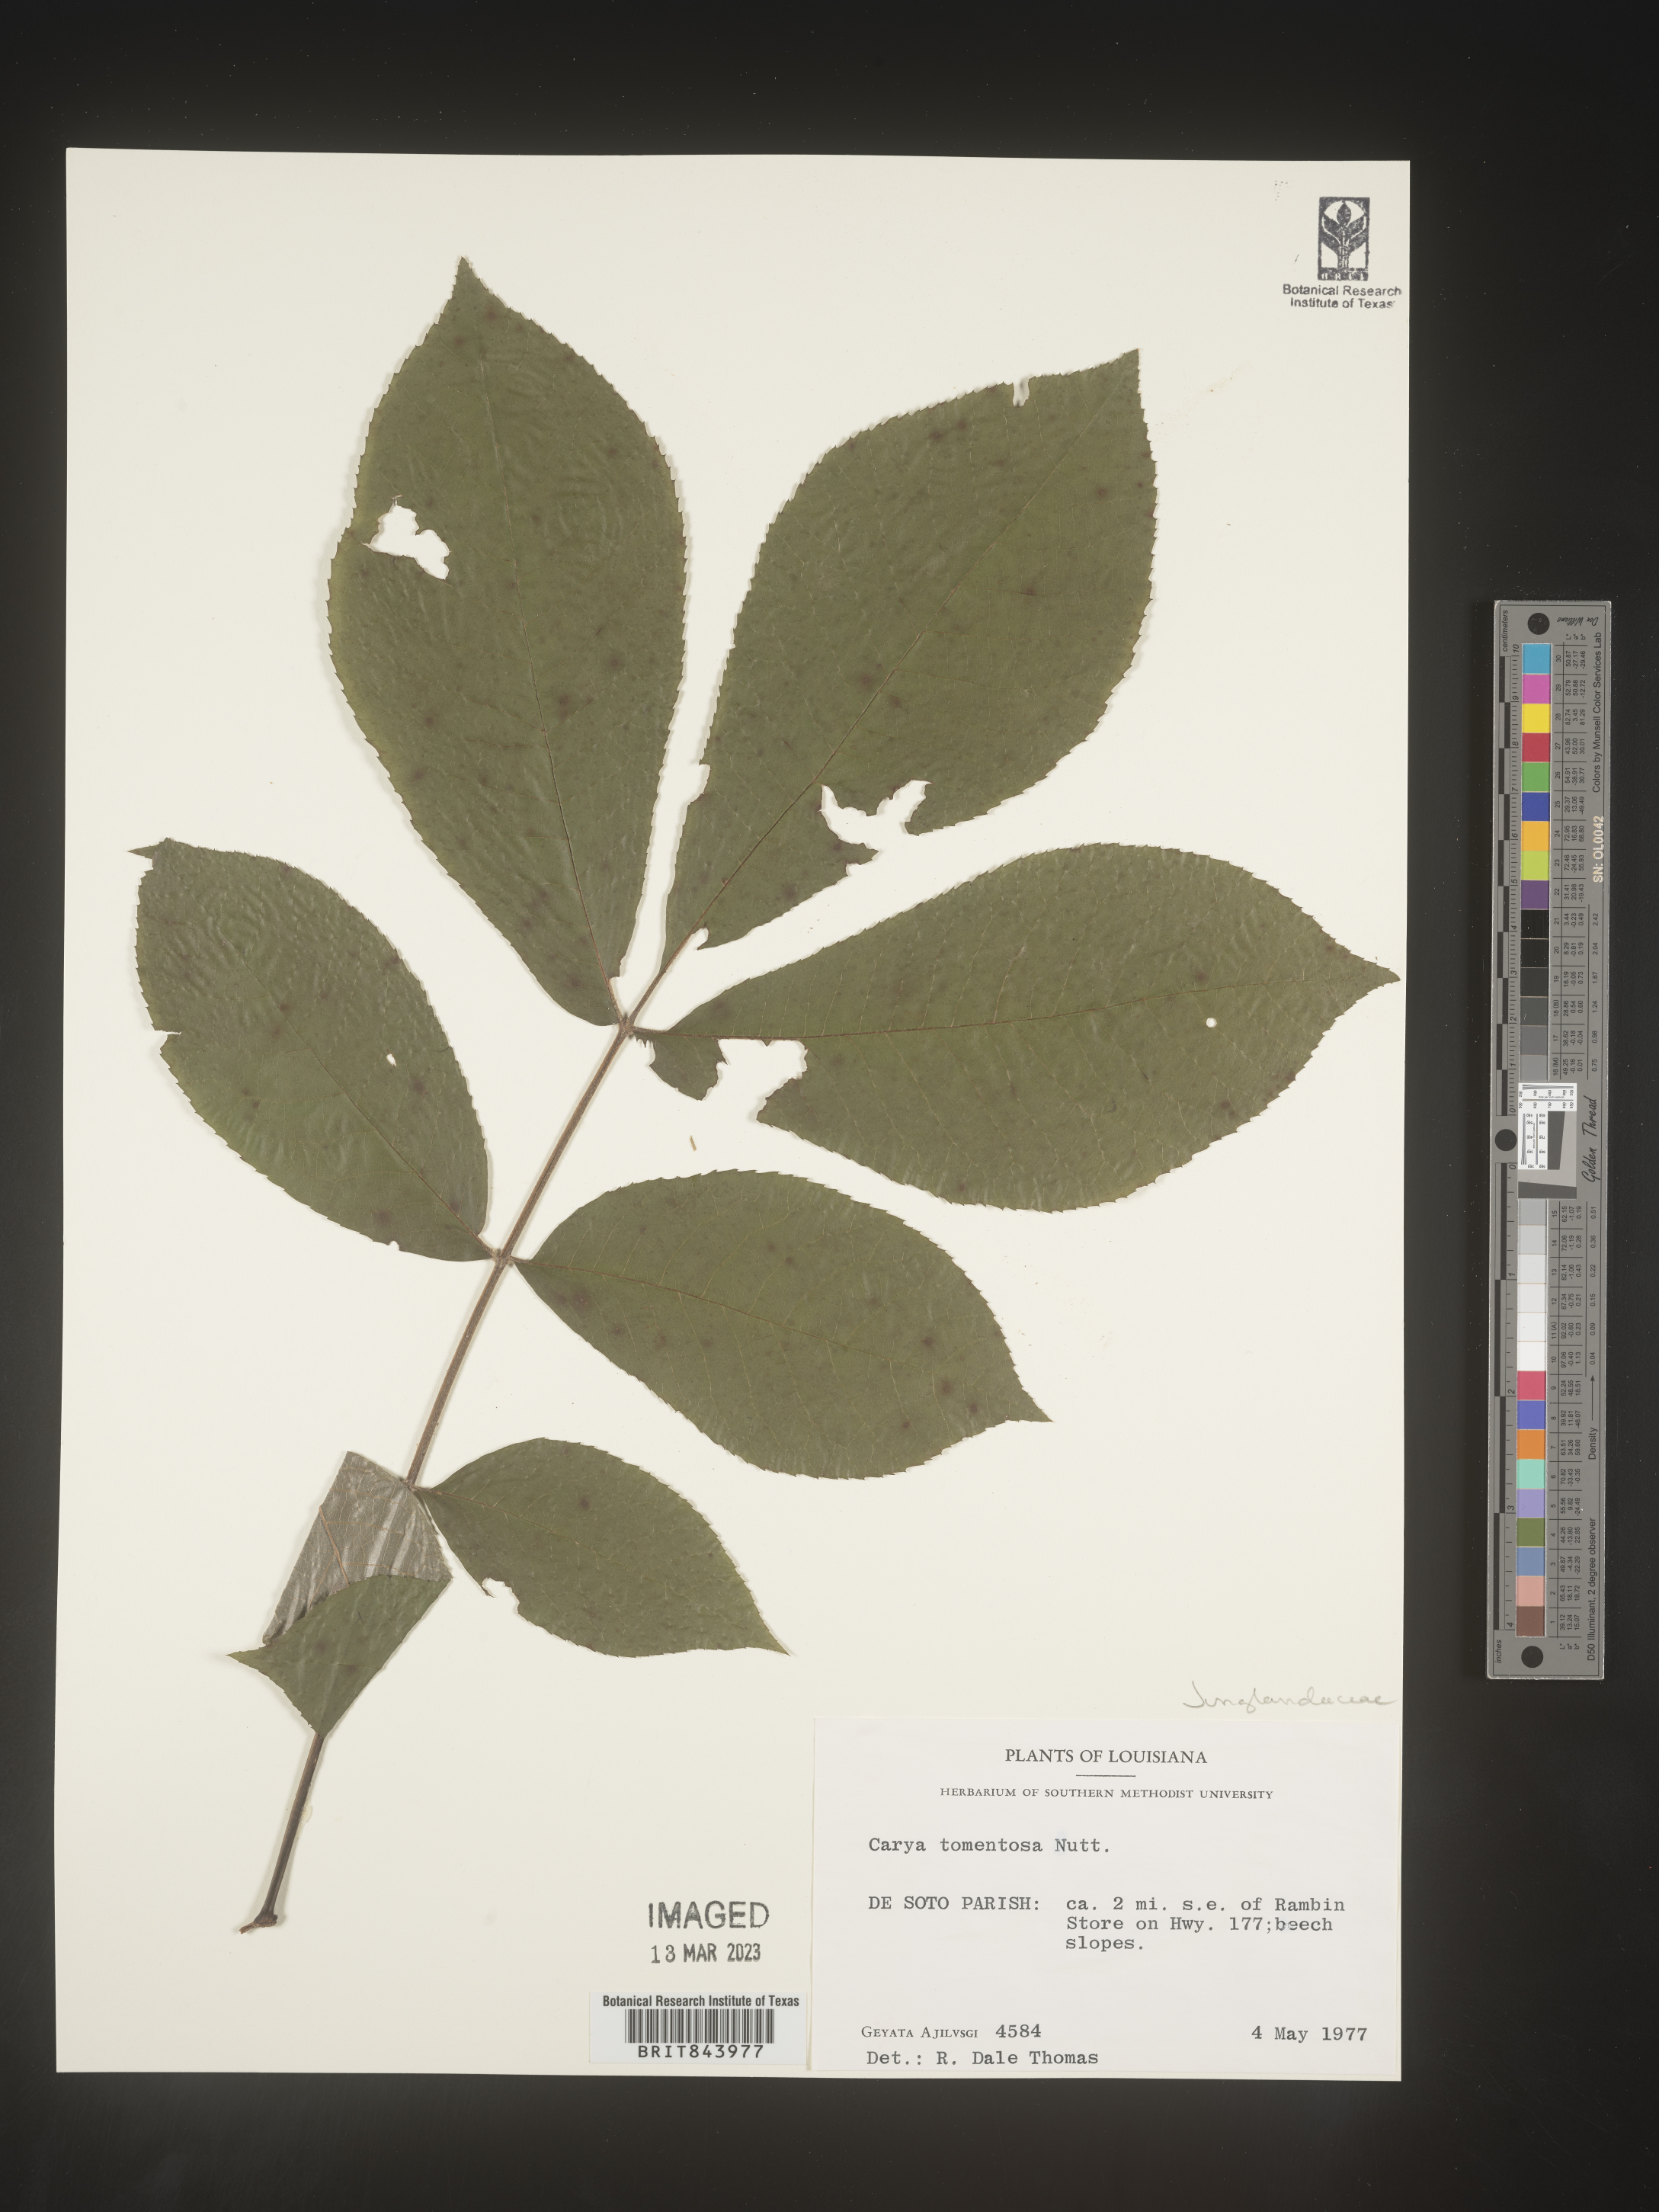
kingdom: Plantae
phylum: Tracheophyta
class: Magnoliopsida
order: Fagales
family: Juglandaceae
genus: Carya
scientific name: Carya alba
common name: Mockernut hickory
